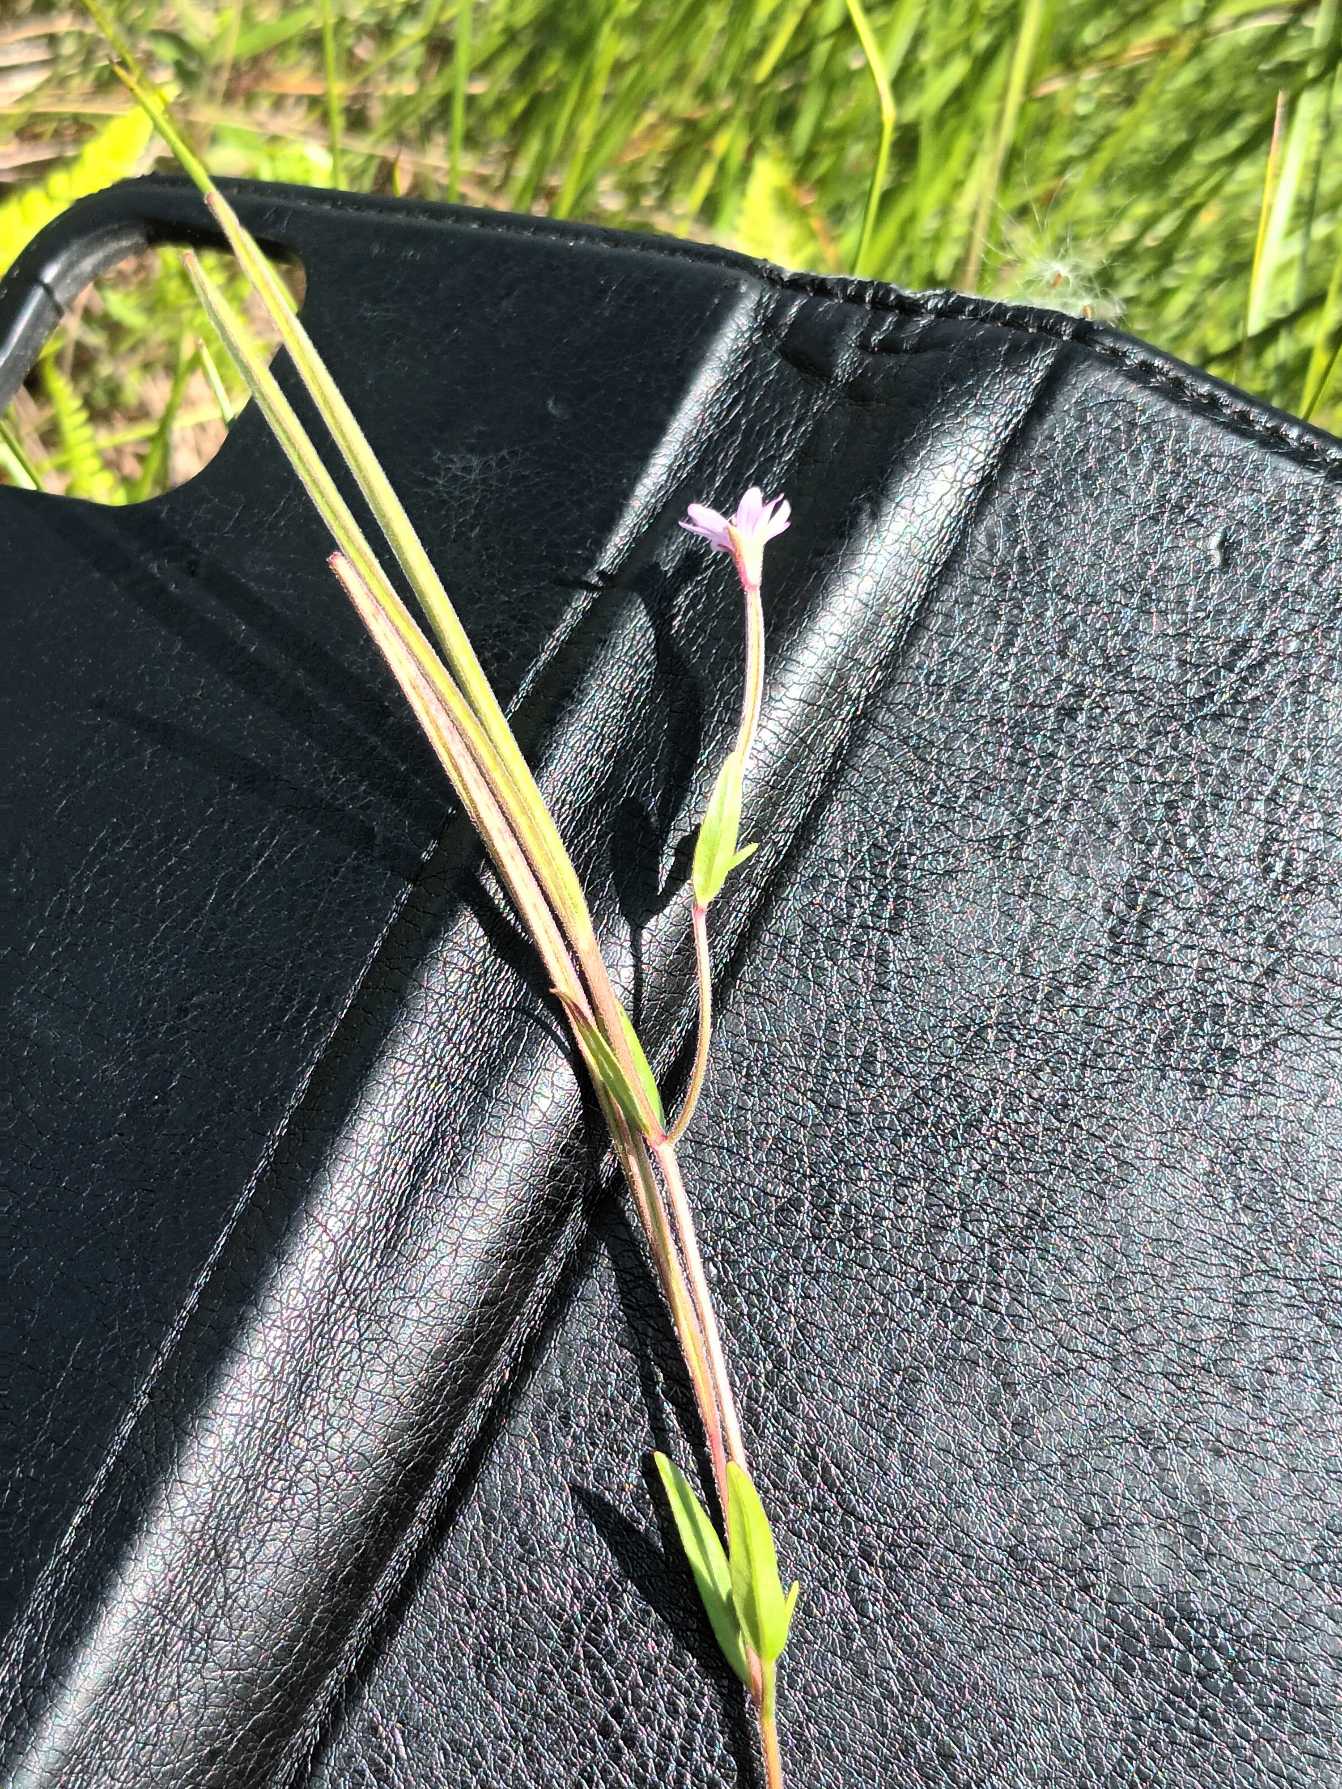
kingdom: Plantae
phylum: Tracheophyta
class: Magnoliopsida
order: Myrtales
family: Onagraceae
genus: Epilobium
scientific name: Epilobium palustre
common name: Kær-dueurt
